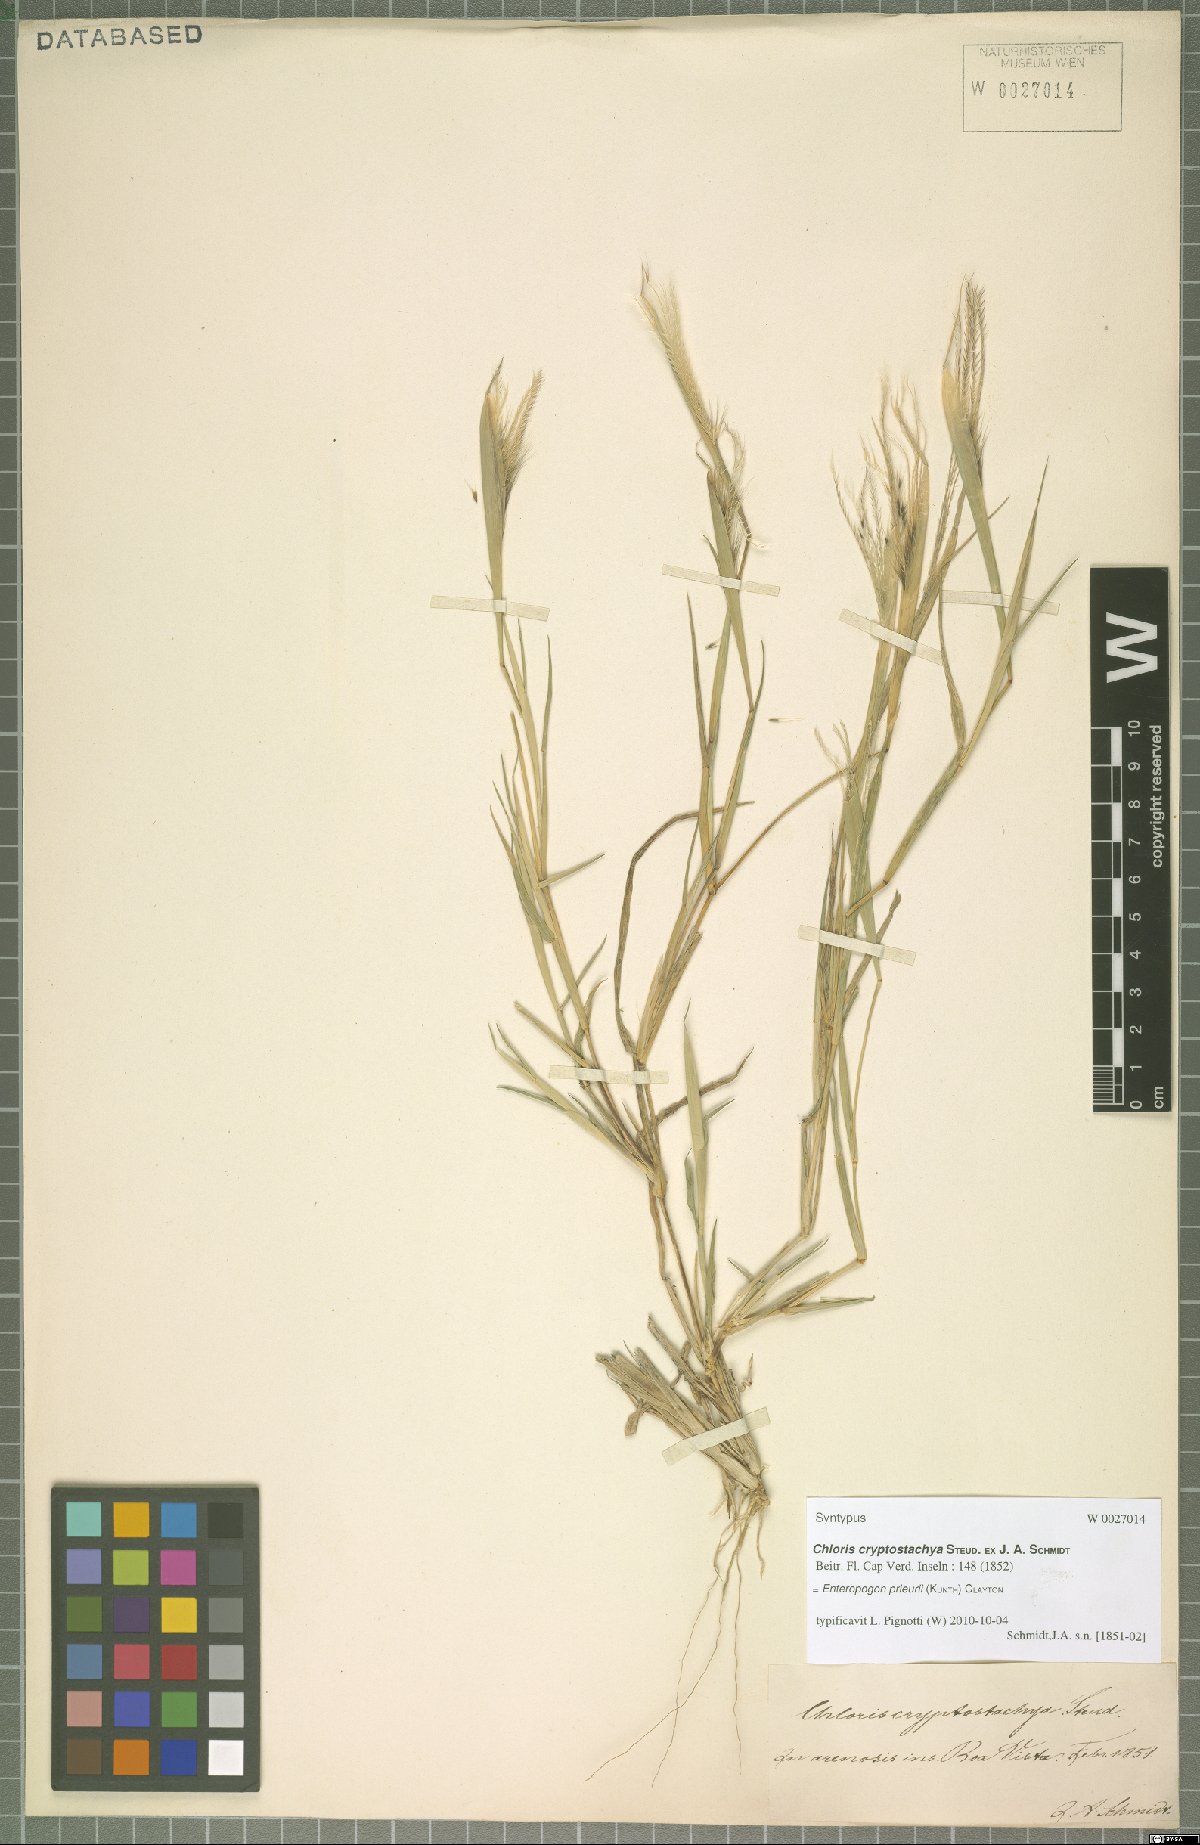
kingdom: Plantae
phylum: Tracheophyta
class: Liliopsida
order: Poales
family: Poaceae
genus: Enteropogon
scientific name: Enteropogon prieurii
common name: Prieur's umbrellagrass
